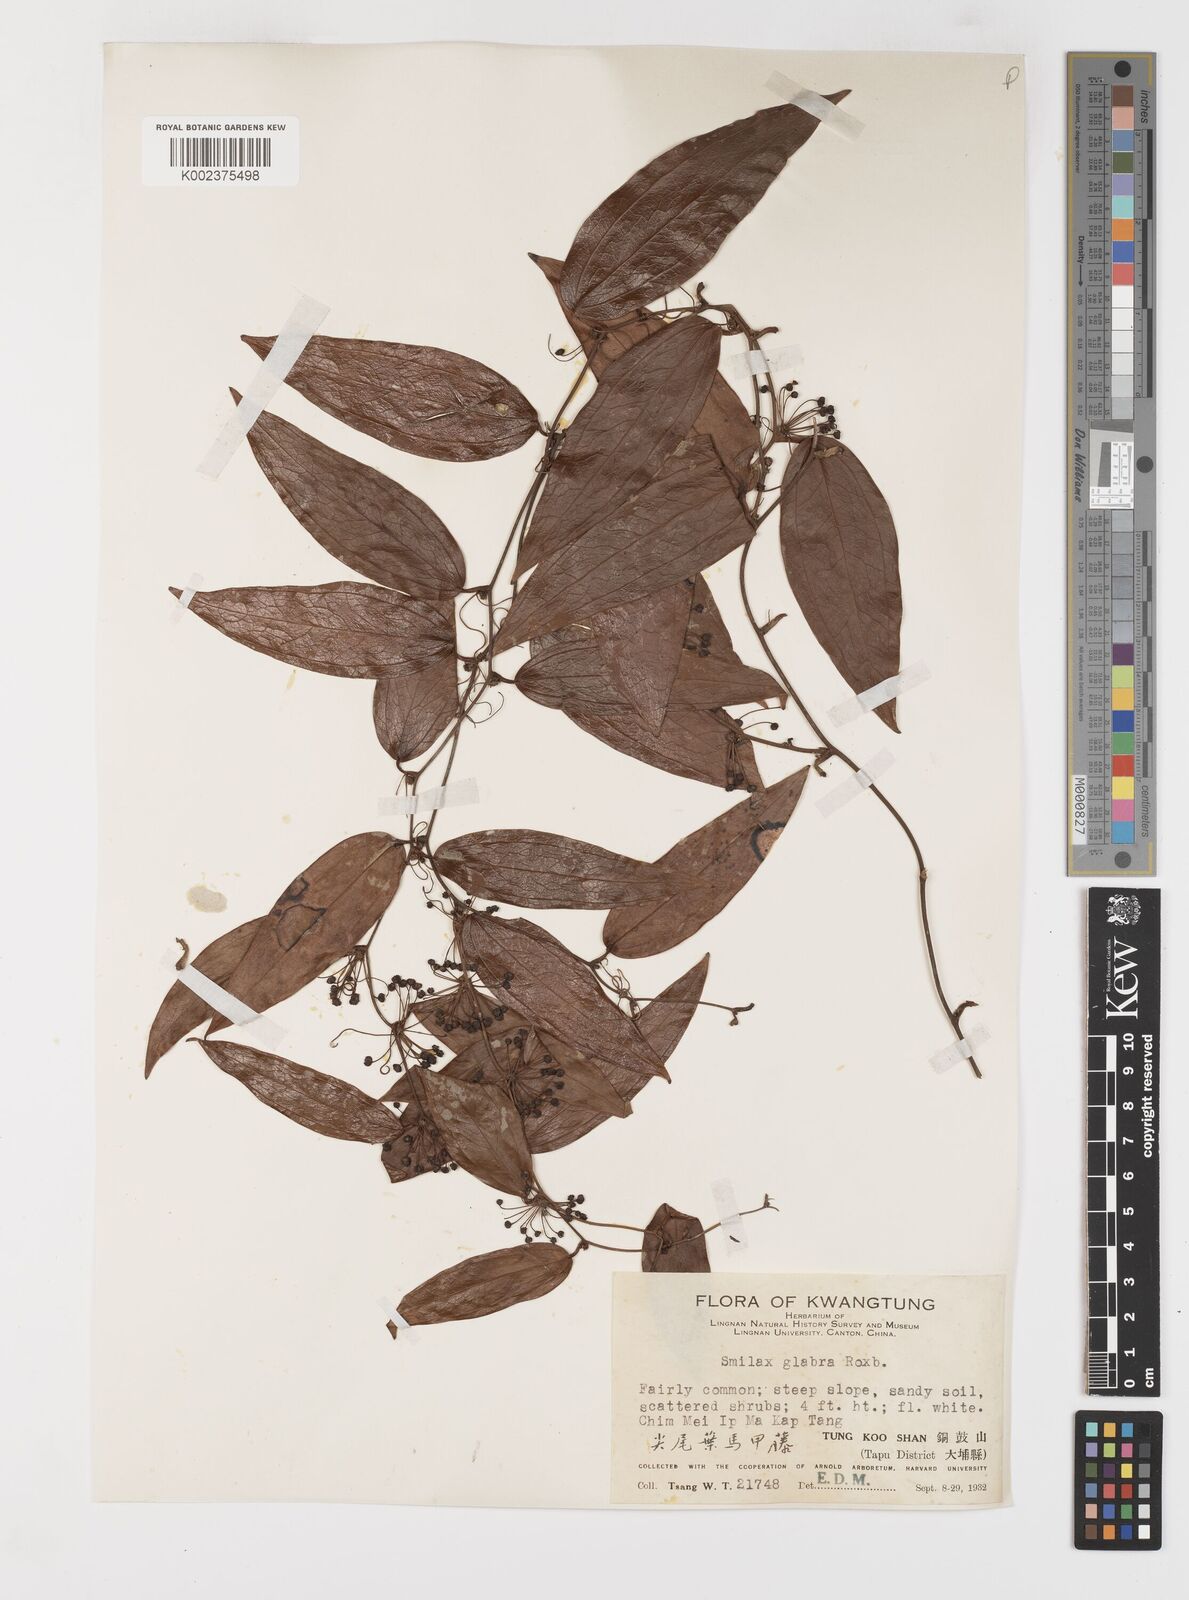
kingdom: Plantae
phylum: Tracheophyta
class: Liliopsida
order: Liliales
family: Smilacaceae
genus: Smilax
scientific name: Smilax glabra
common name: Chinese smilax
